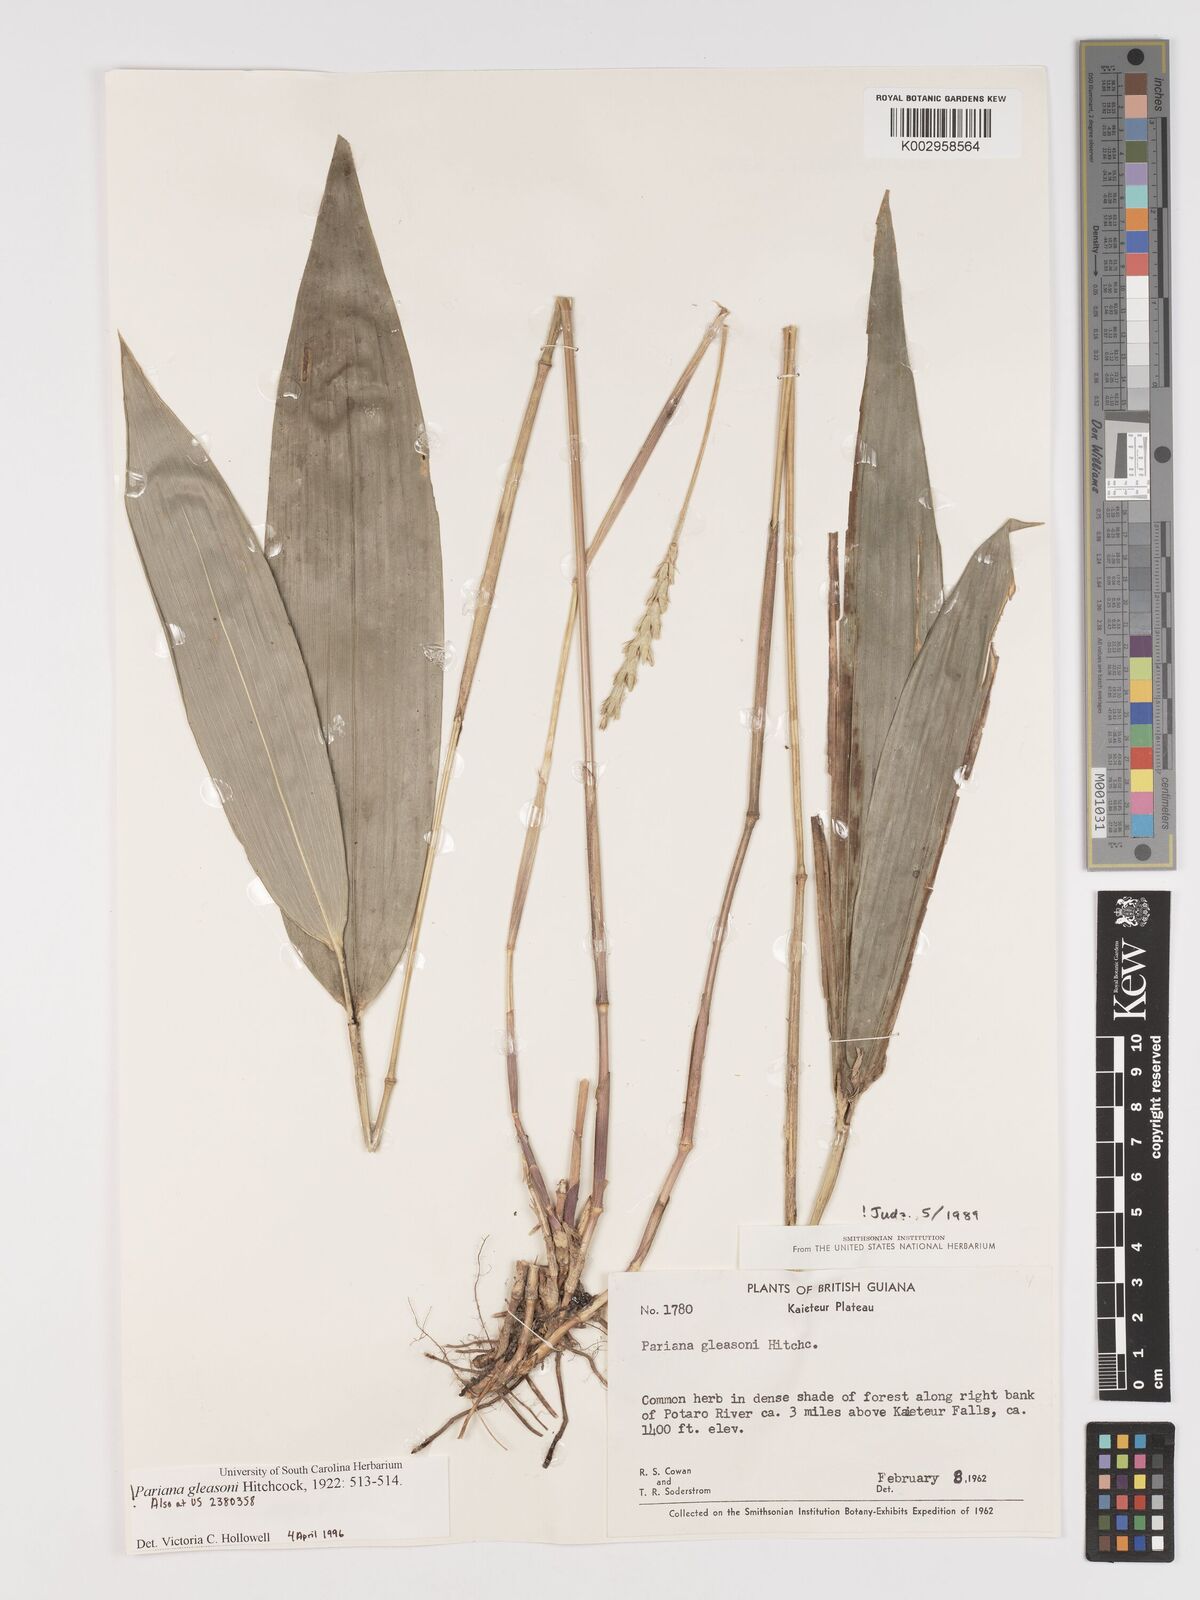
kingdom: Plantae
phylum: Tracheophyta
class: Liliopsida
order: Poales
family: Poaceae
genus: Pariana
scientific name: Pariana radiciflora
